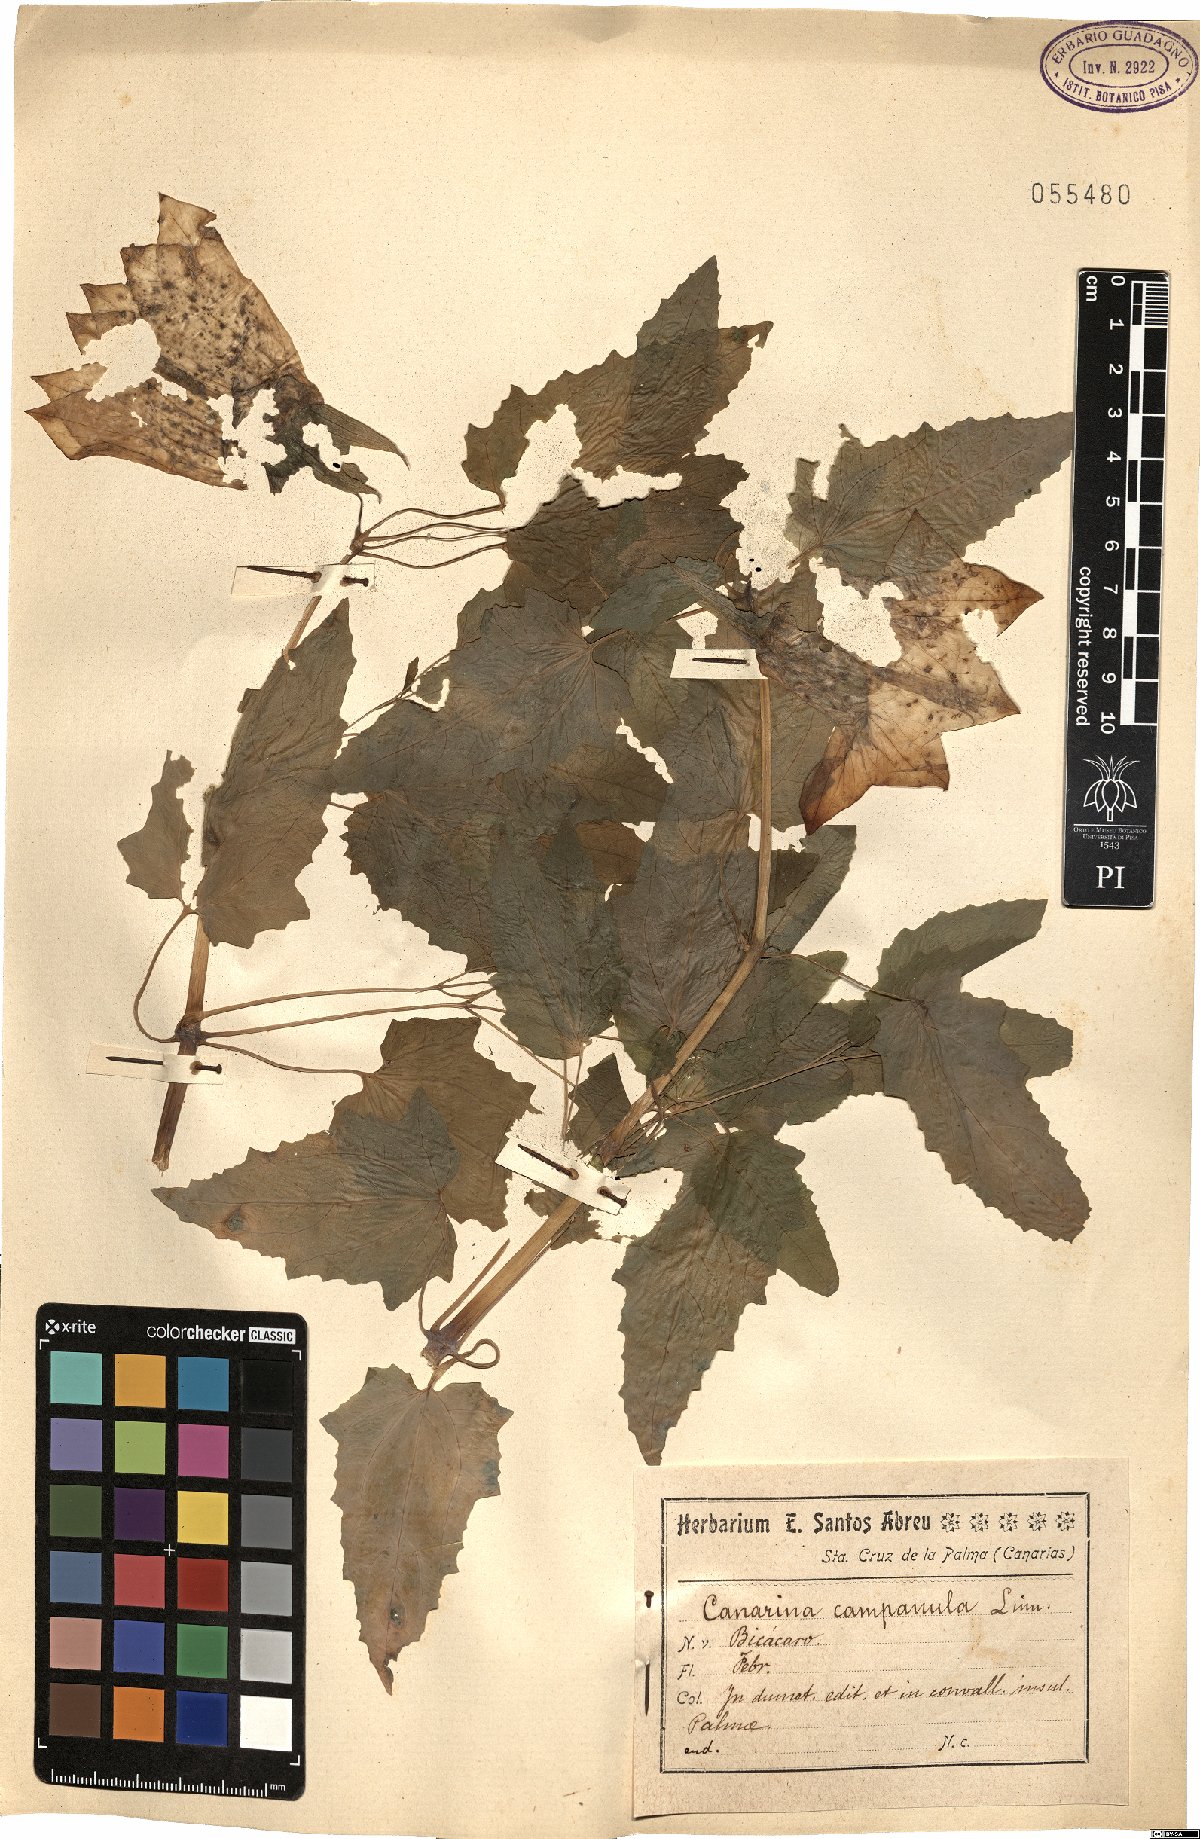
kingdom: Plantae
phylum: Tracheophyta
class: Magnoliopsida
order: Asterales
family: Campanulaceae
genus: Canarina
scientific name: Canarina canariensis
